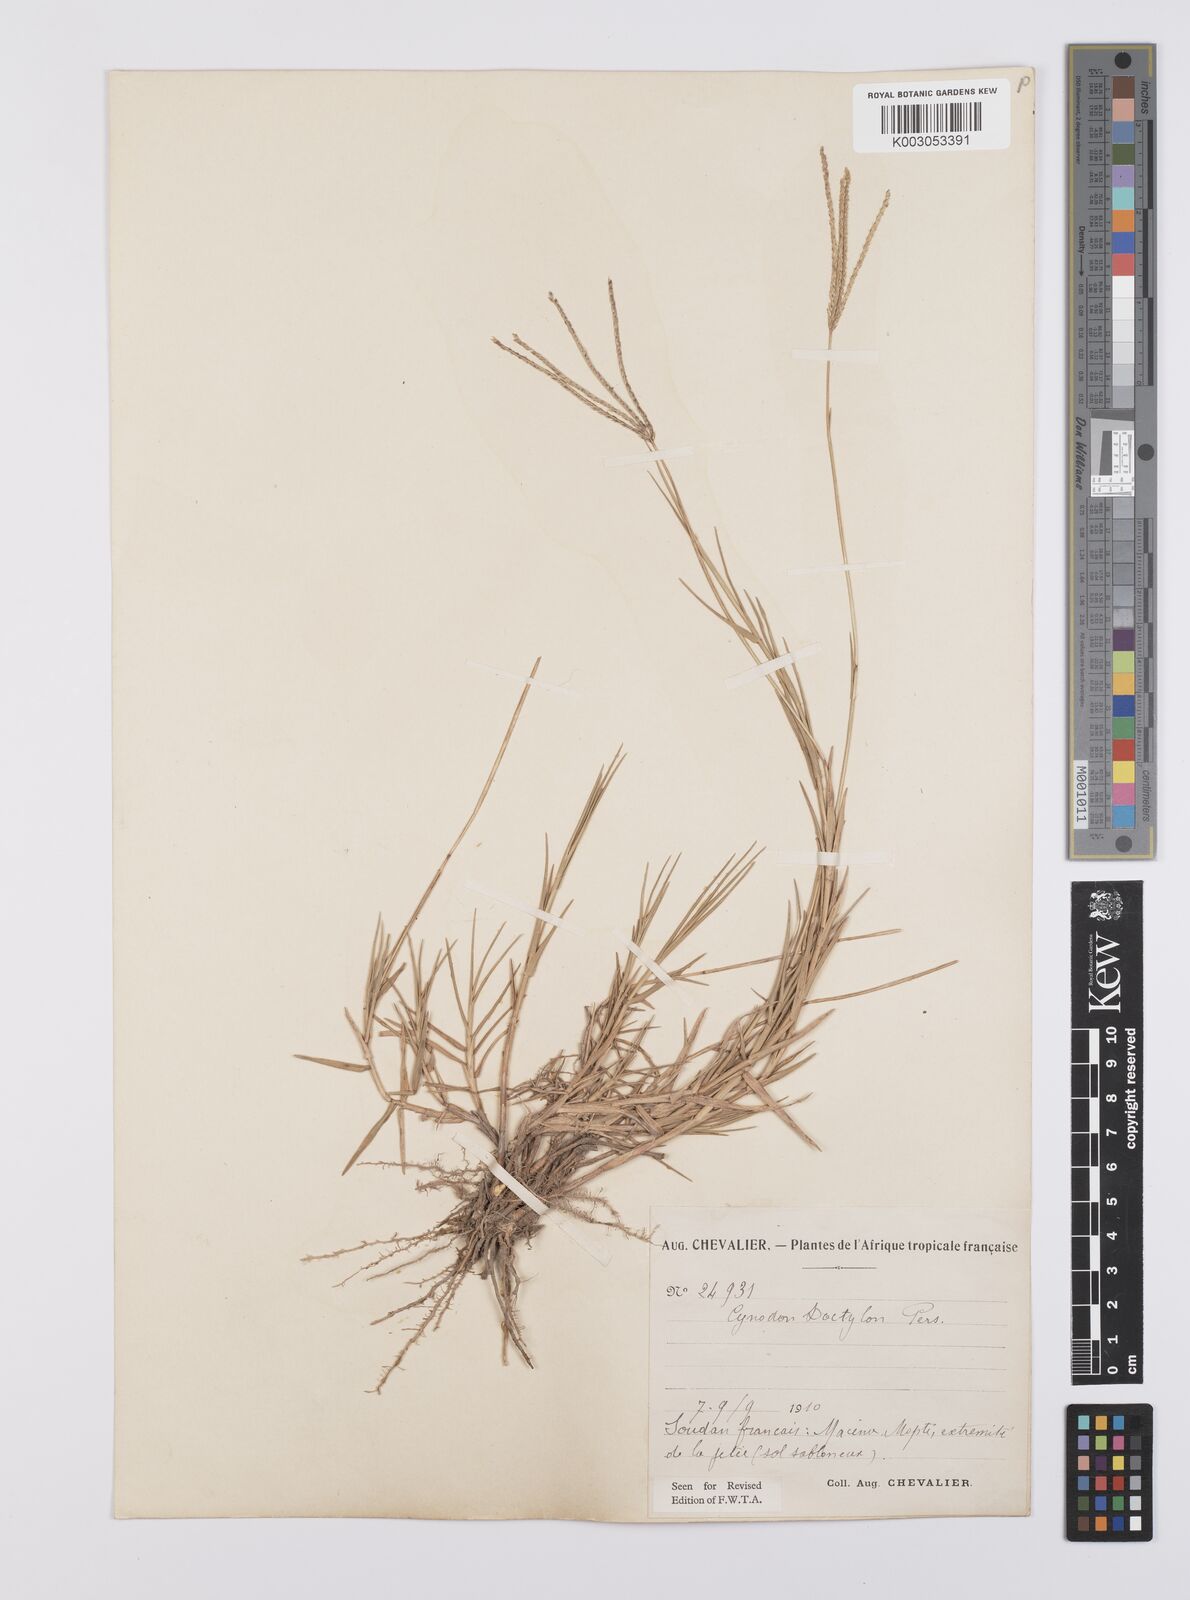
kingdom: Plantae
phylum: Tracheophyta
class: Liliopsida
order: Poales
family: Poaceae
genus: Cynodon
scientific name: Cynodon dactylon
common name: Bermuda grass
